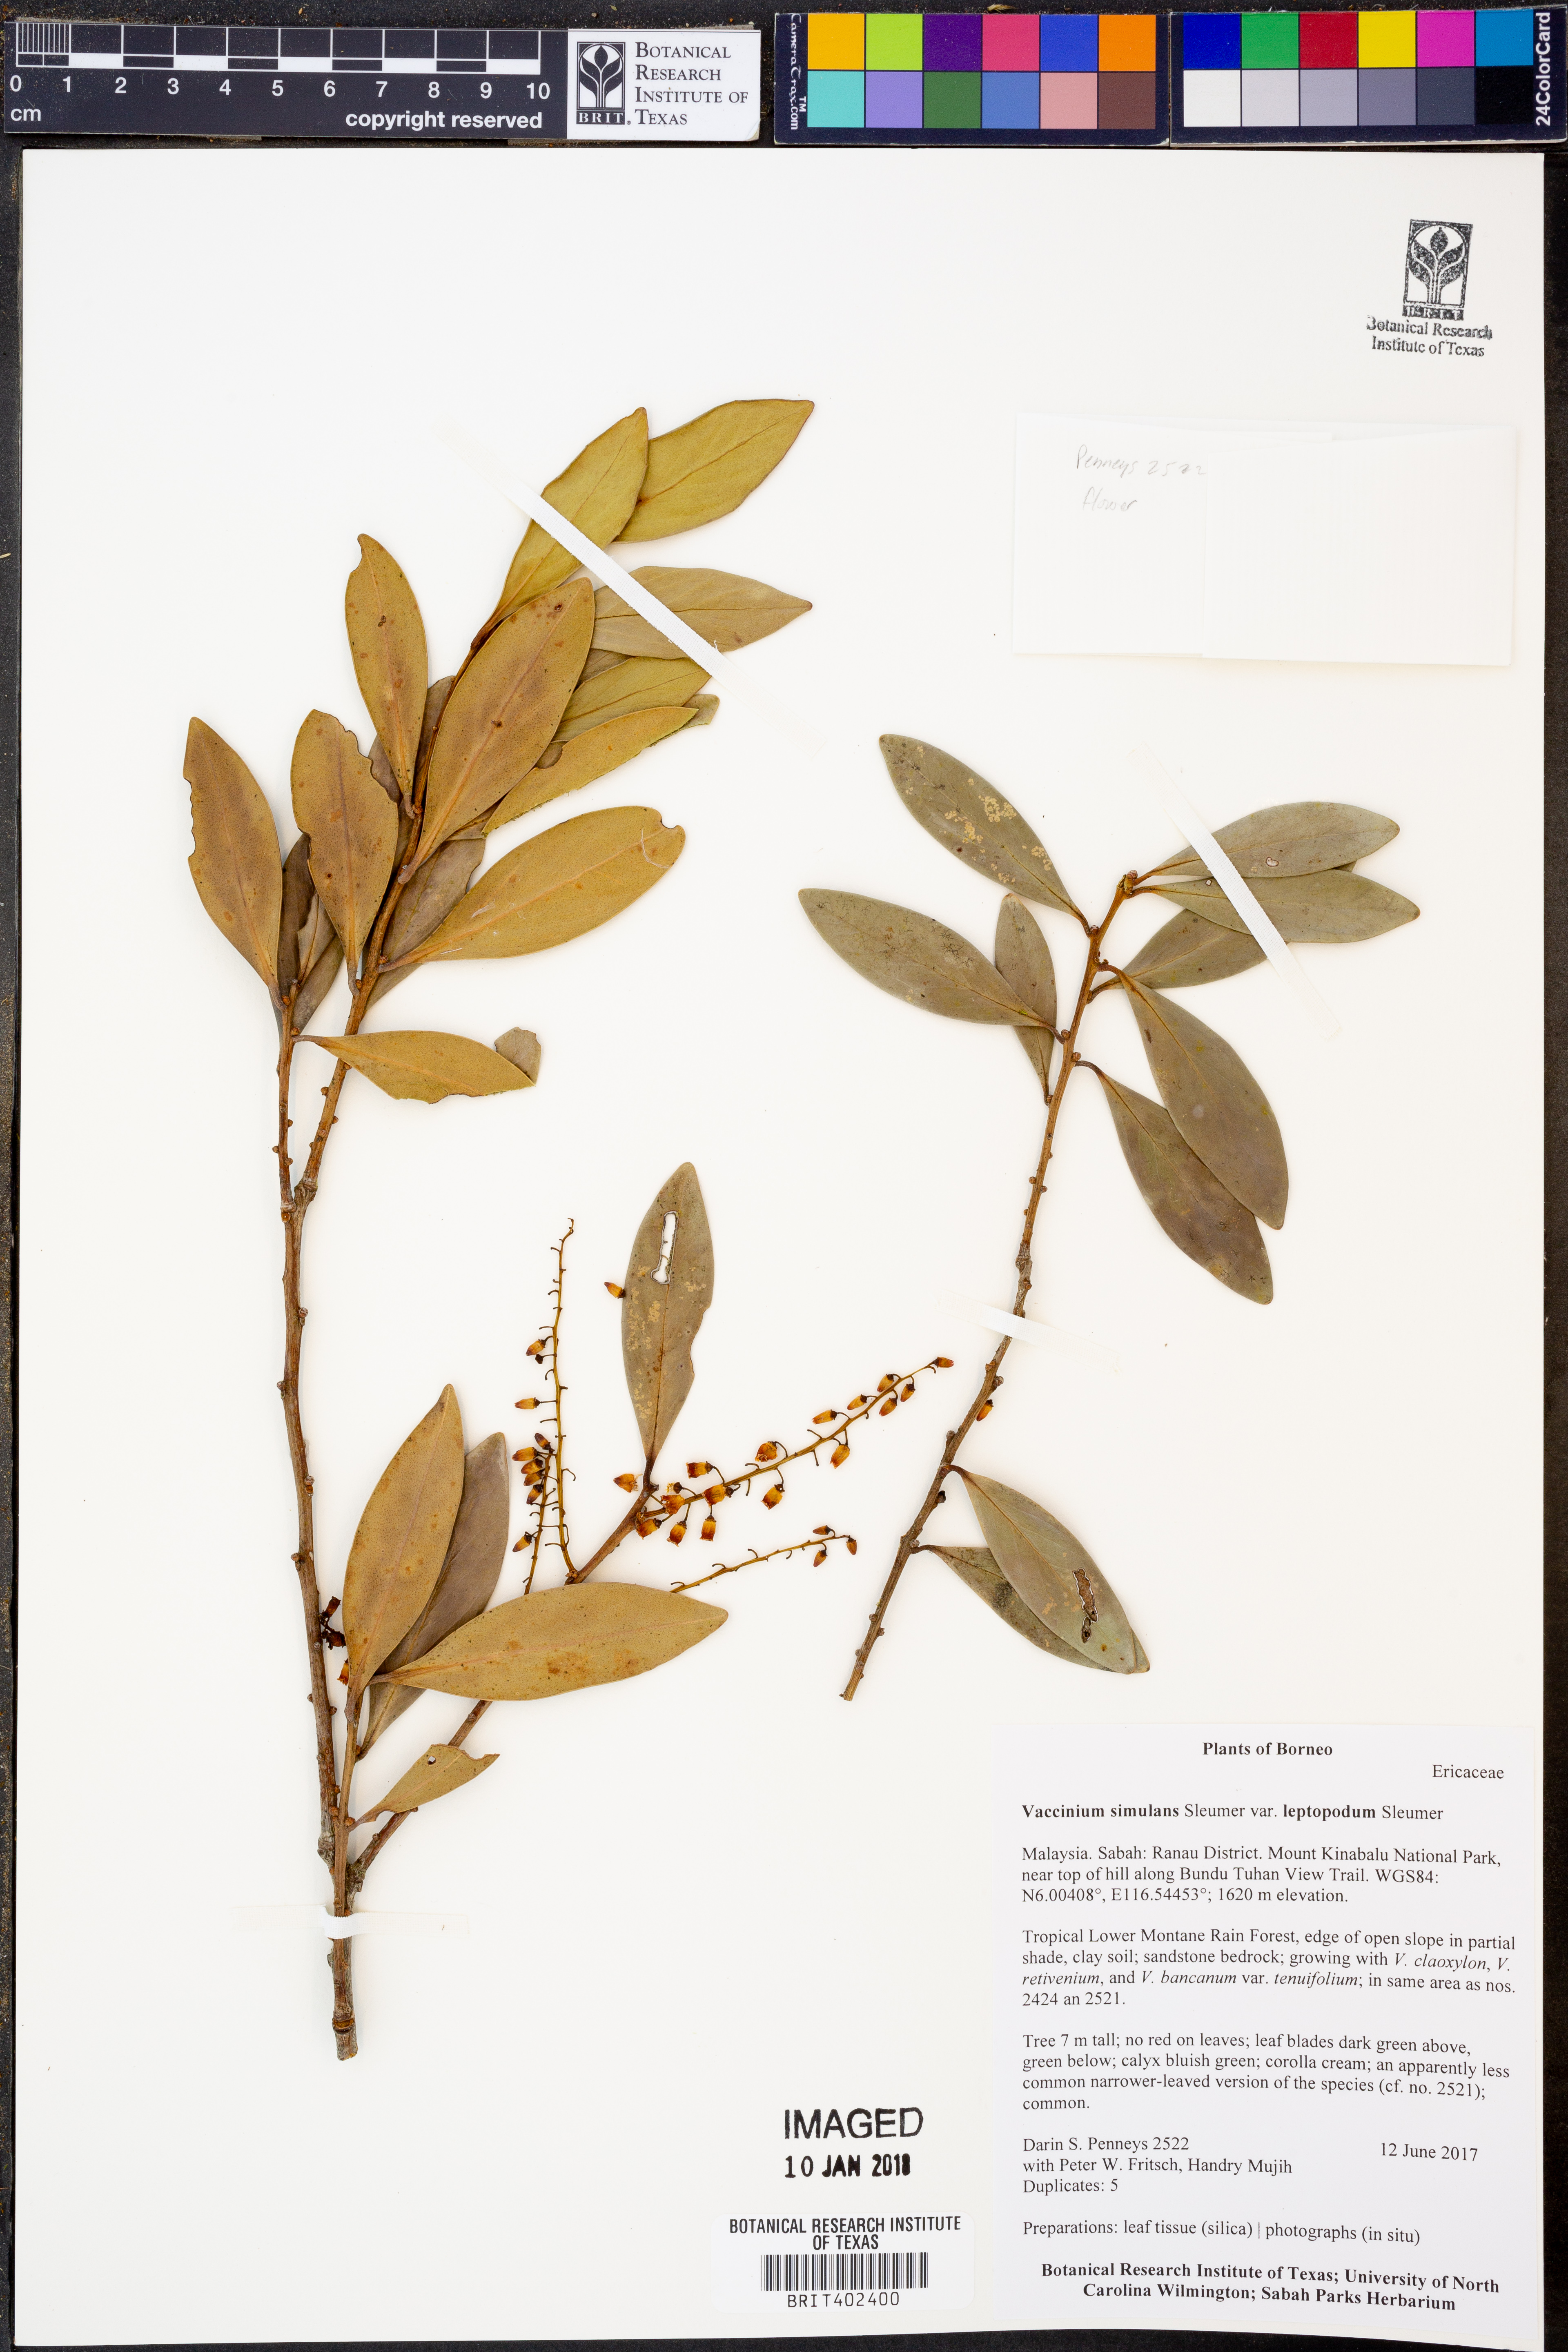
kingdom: Plantae
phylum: Tracheophyta
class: Magnoliopsida
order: Ericales
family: Ericaceae
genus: Vaccinium
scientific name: Vaccinium simulans
